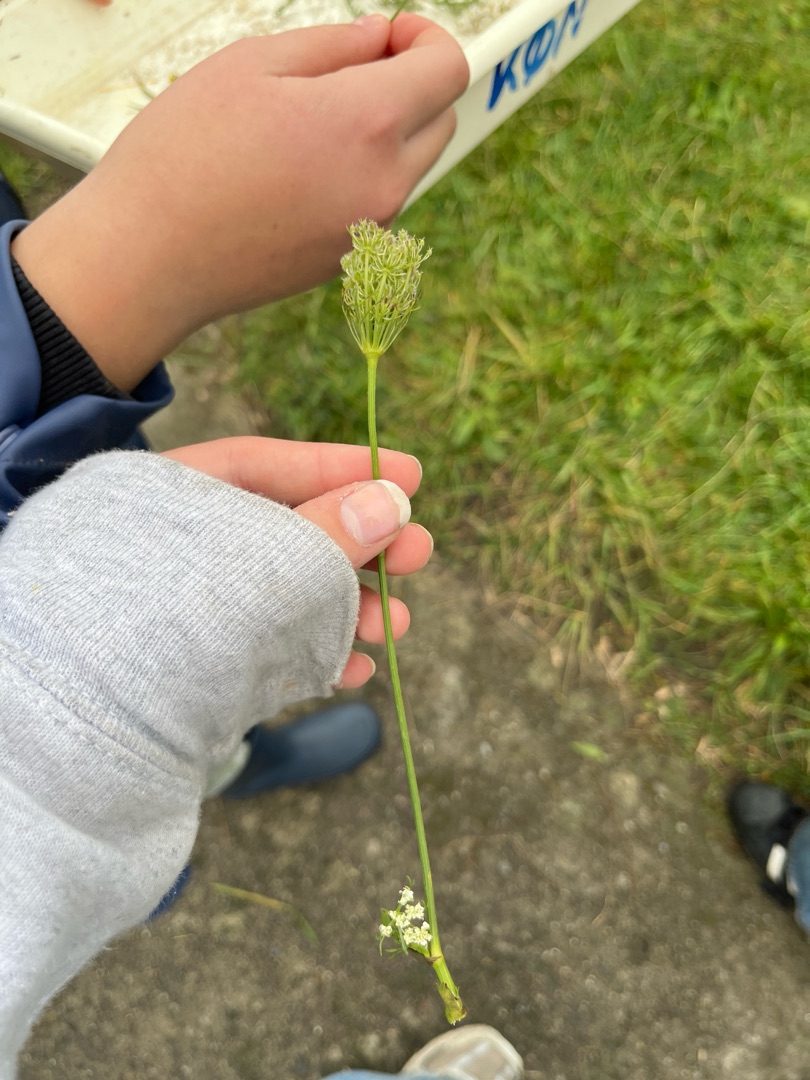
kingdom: Plantae
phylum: Tracheophyta
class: Magnoliopsida
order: Apiales
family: Apiaceae
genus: Daucus
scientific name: Daucus carota
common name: Gulerod
